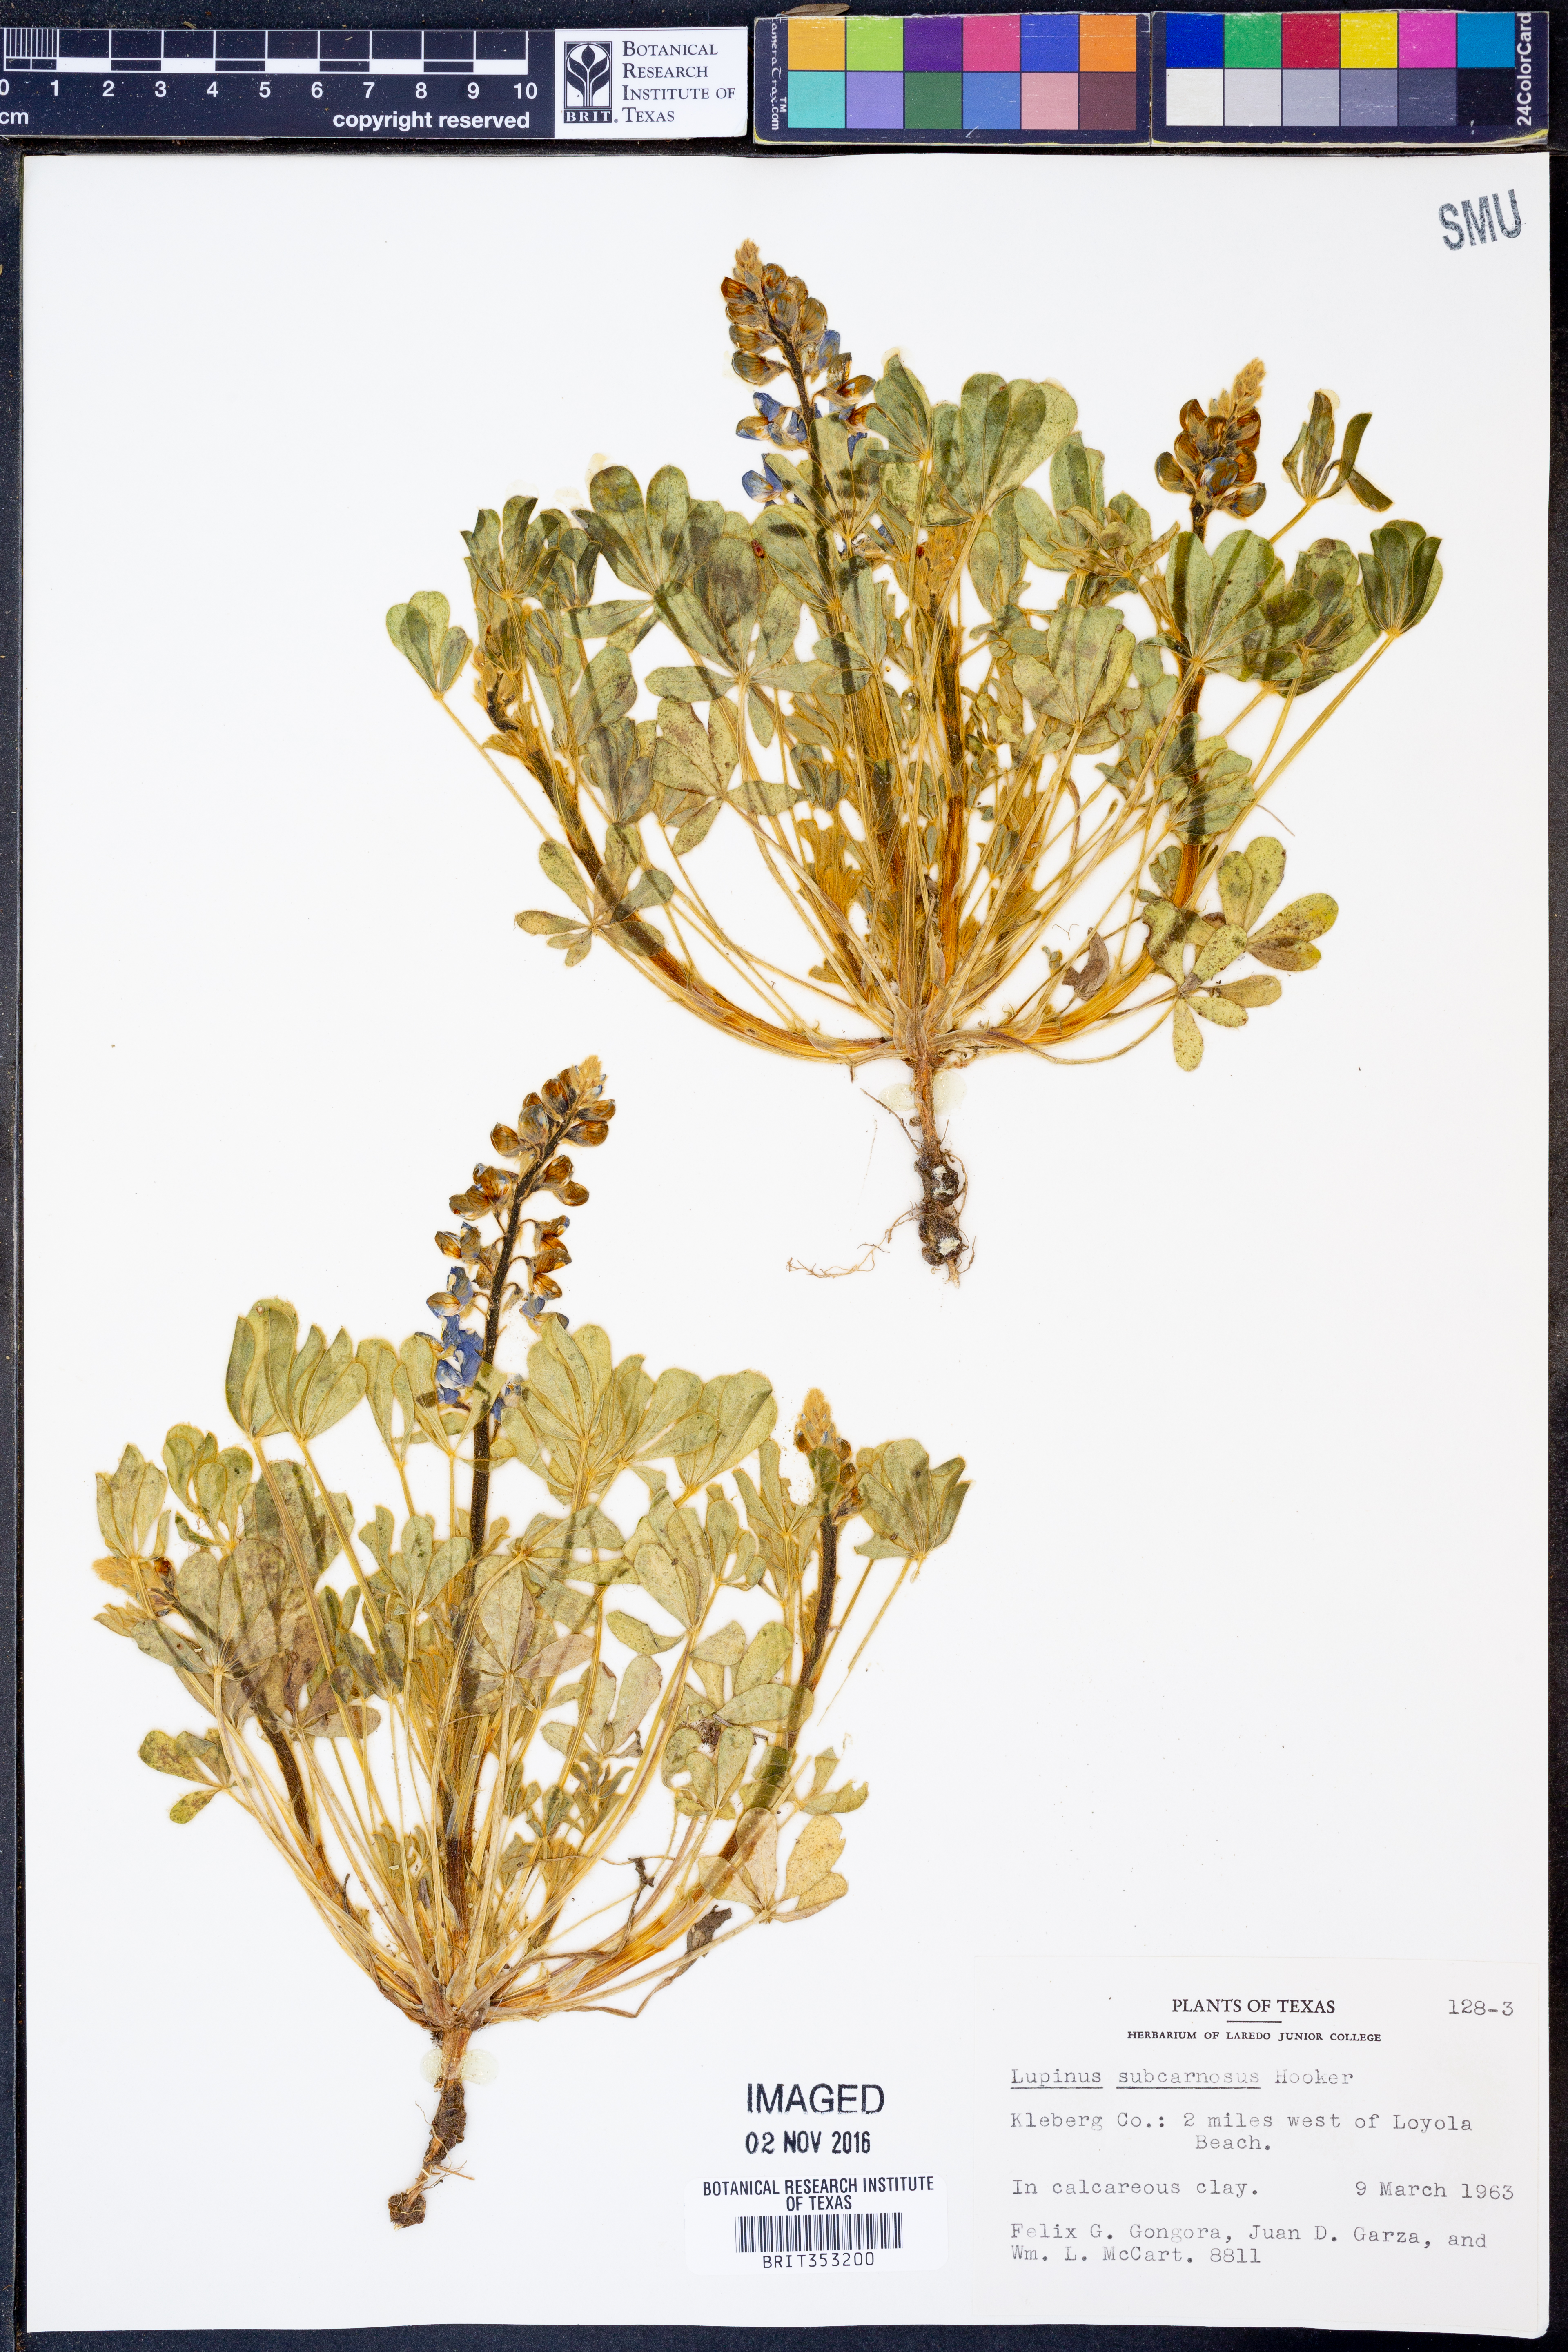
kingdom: Plantae
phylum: Tracheophyta
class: Magnoliopsida
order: Fabales
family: Fabaceae
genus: Lupinus
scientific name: Lupinus subcarnosus
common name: Texas bluebonnet
